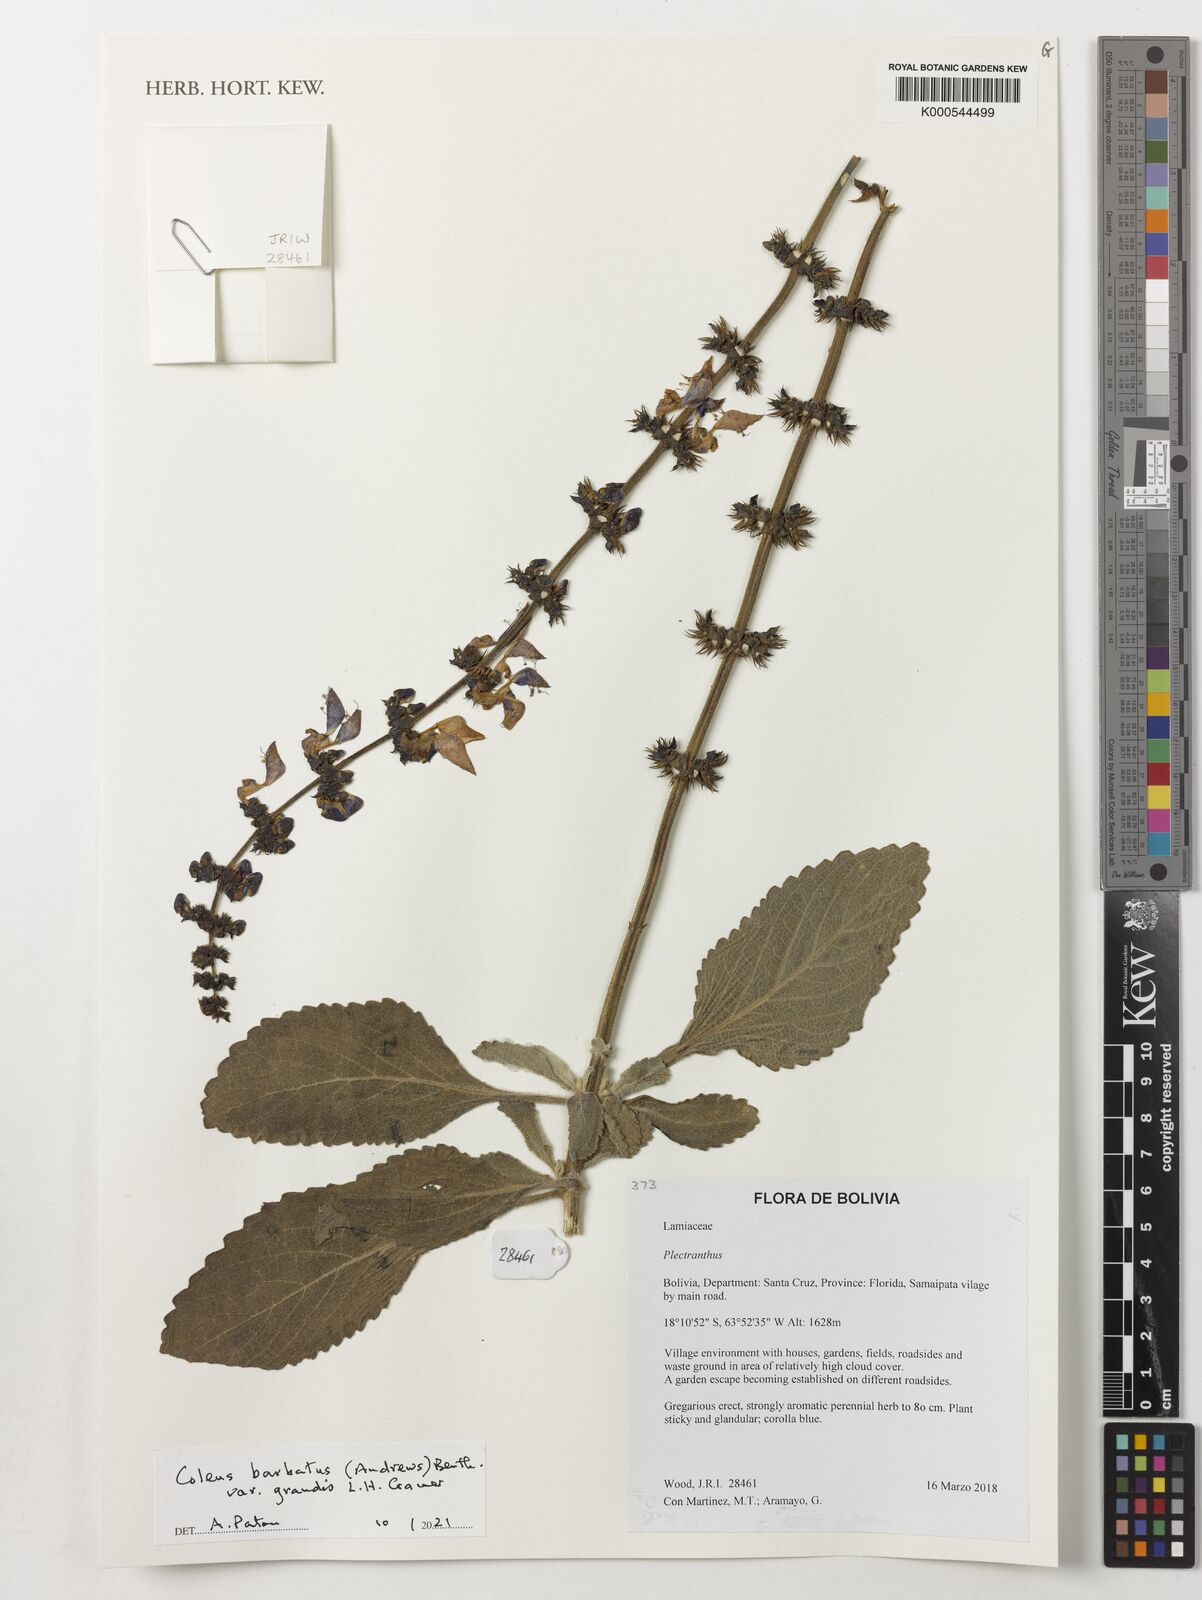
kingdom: Plantae
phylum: Tracheophyta
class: Magnoliopsida
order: Lamiales
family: Lamiaceae
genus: Coleus
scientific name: Coleus barbatus
